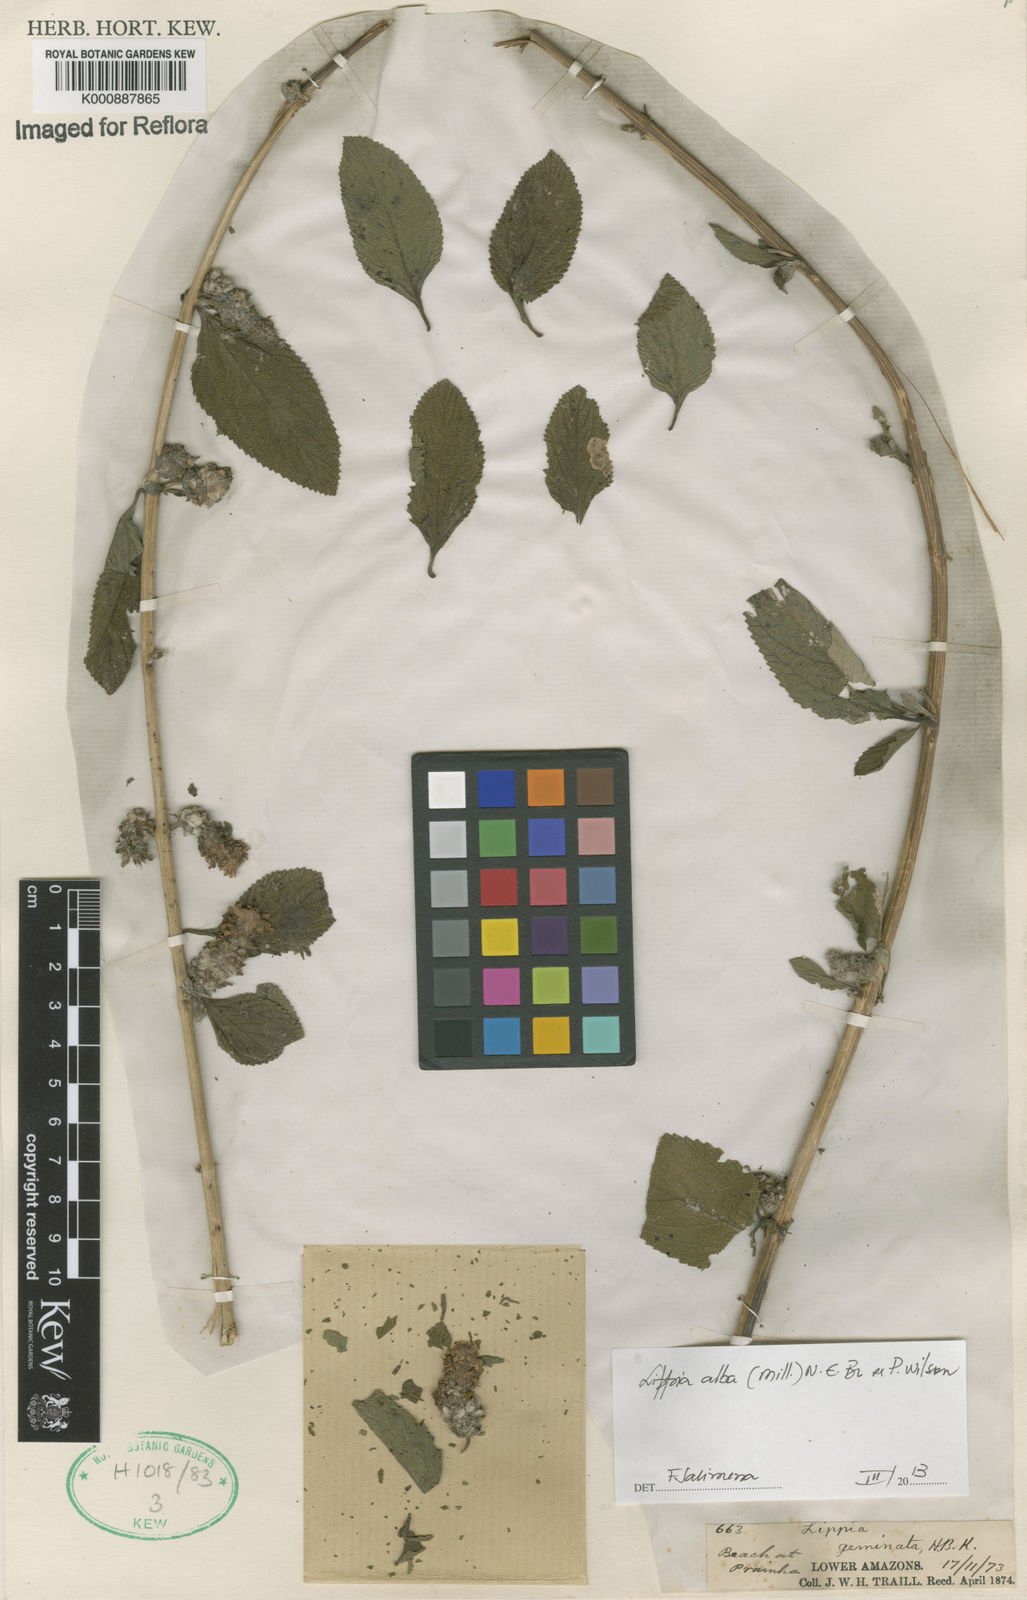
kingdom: Plantae
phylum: Tracheophyta
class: Magnoliopsida
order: Lamiales
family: Verbenaceae
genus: Lippia
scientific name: Lippia
